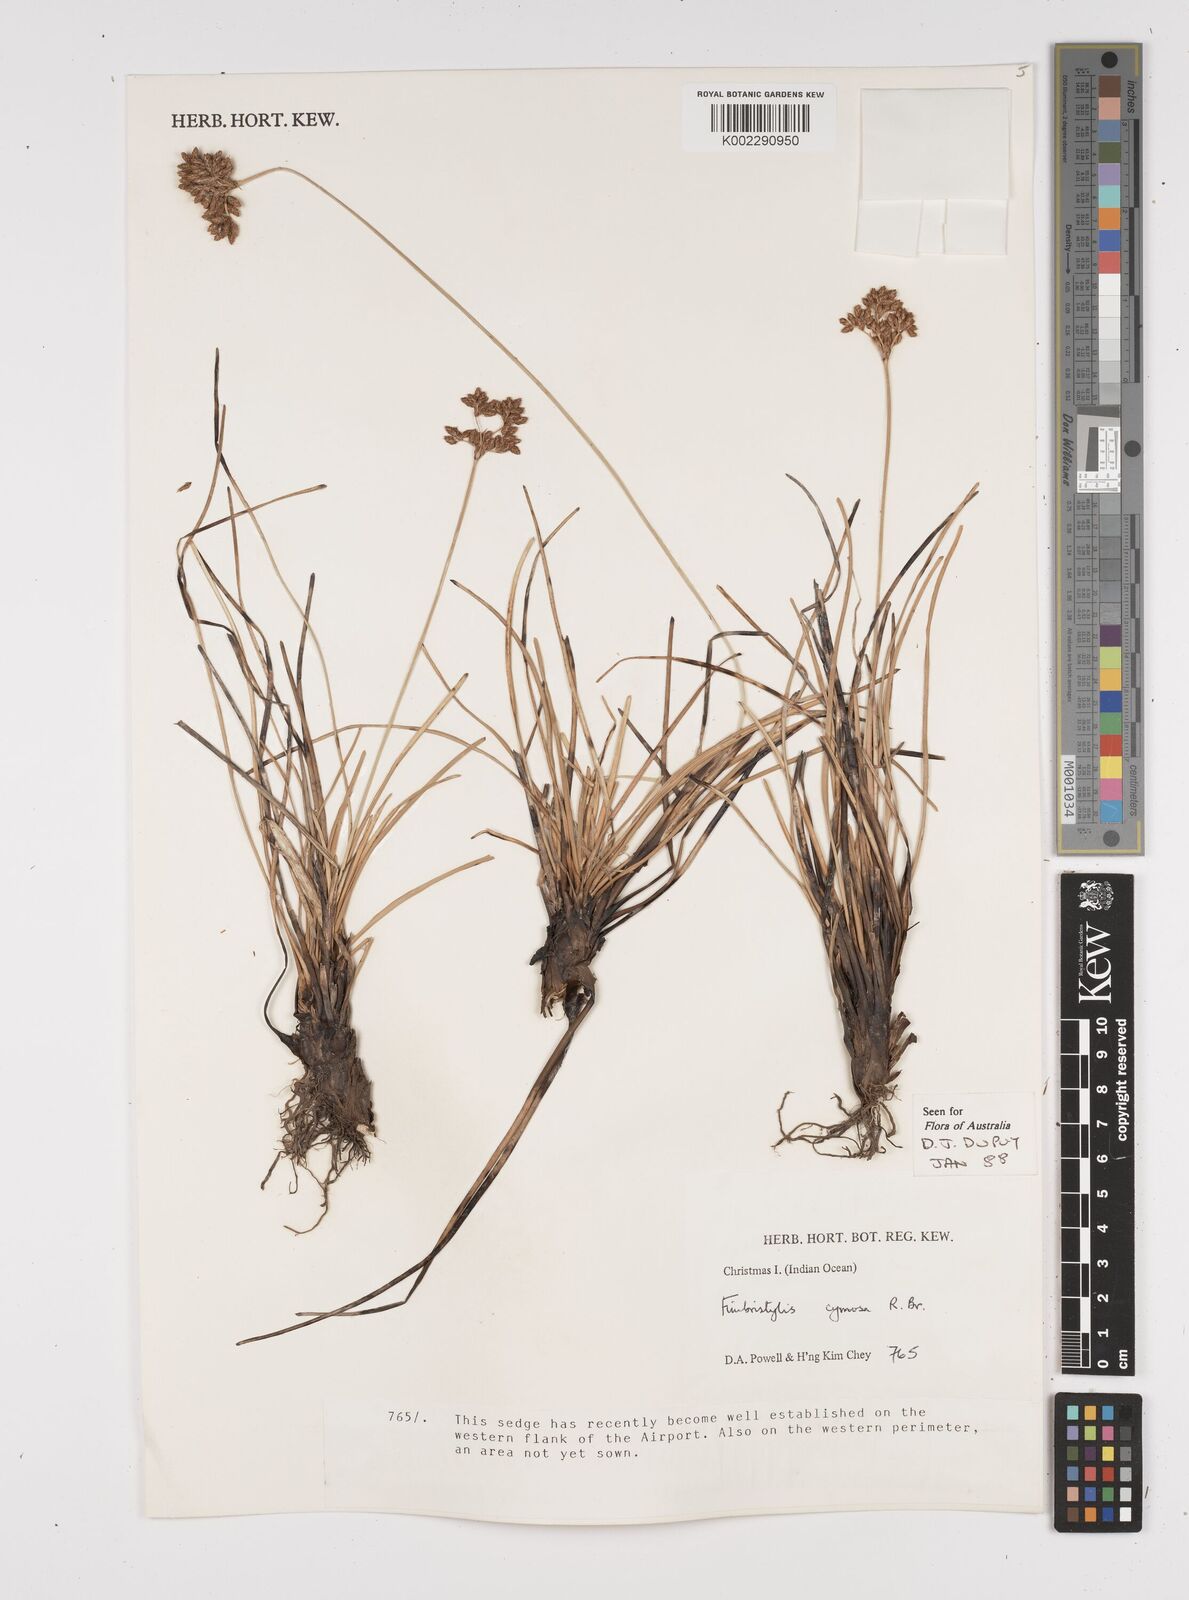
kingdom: Plantae
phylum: Tracheophyta
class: Liliopsida
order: Poales
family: Cyperaceae
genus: Fimbristylis
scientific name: Fimbristylis cymosa
